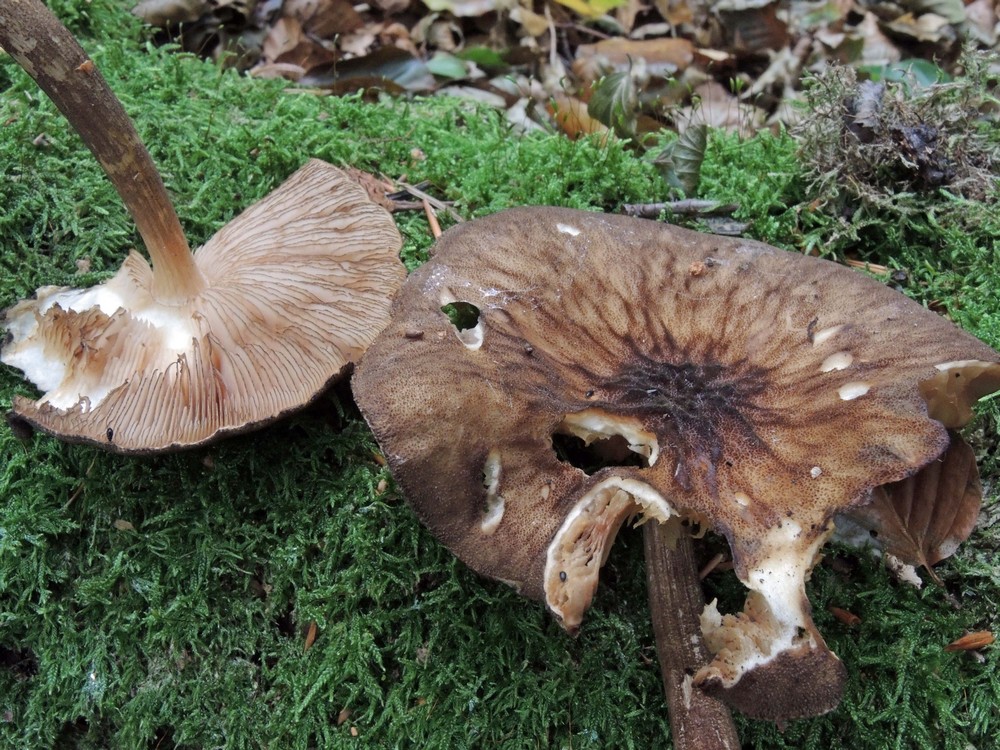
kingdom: Fungi
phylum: Basidiomycota
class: Agaricomycetes
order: Agaricales
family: Pluteaceae
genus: Pluteus
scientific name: Pluteus umbrosus
